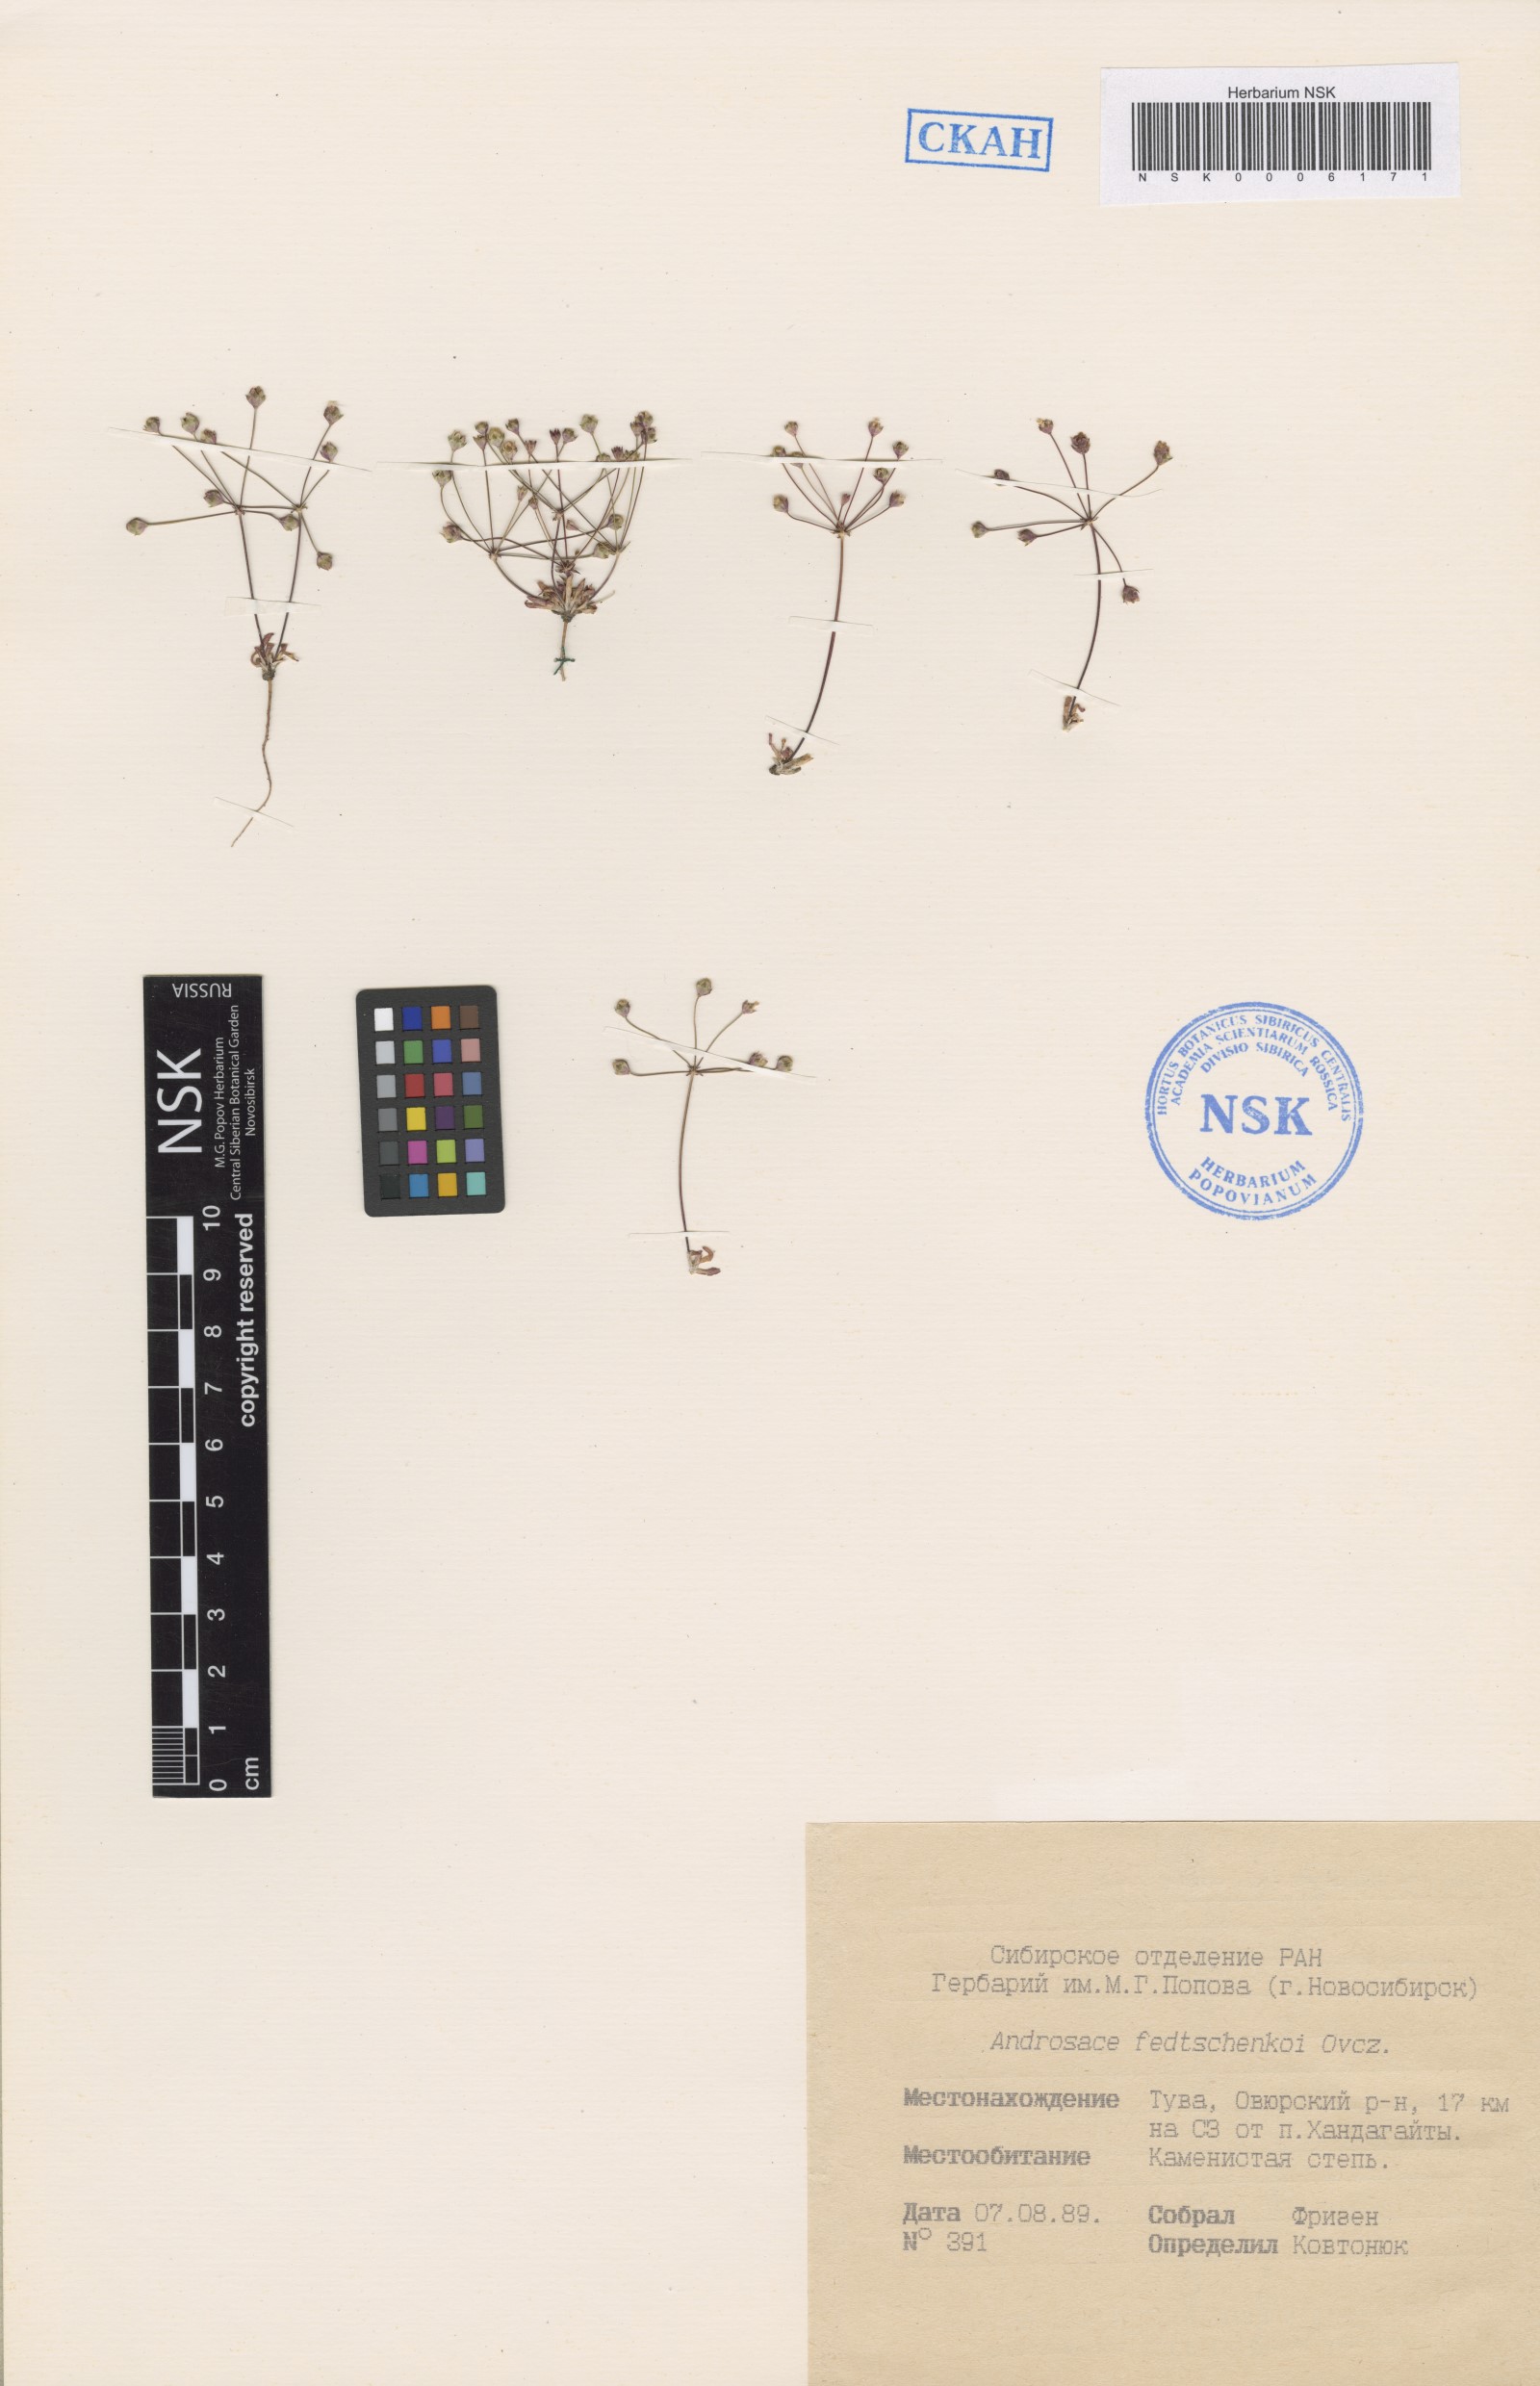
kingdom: Plantae
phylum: Tracheophyta
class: Magnoliopsida
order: Ericales
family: Primulaceae
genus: Androsace
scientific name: Androsace fedtschenkoi
